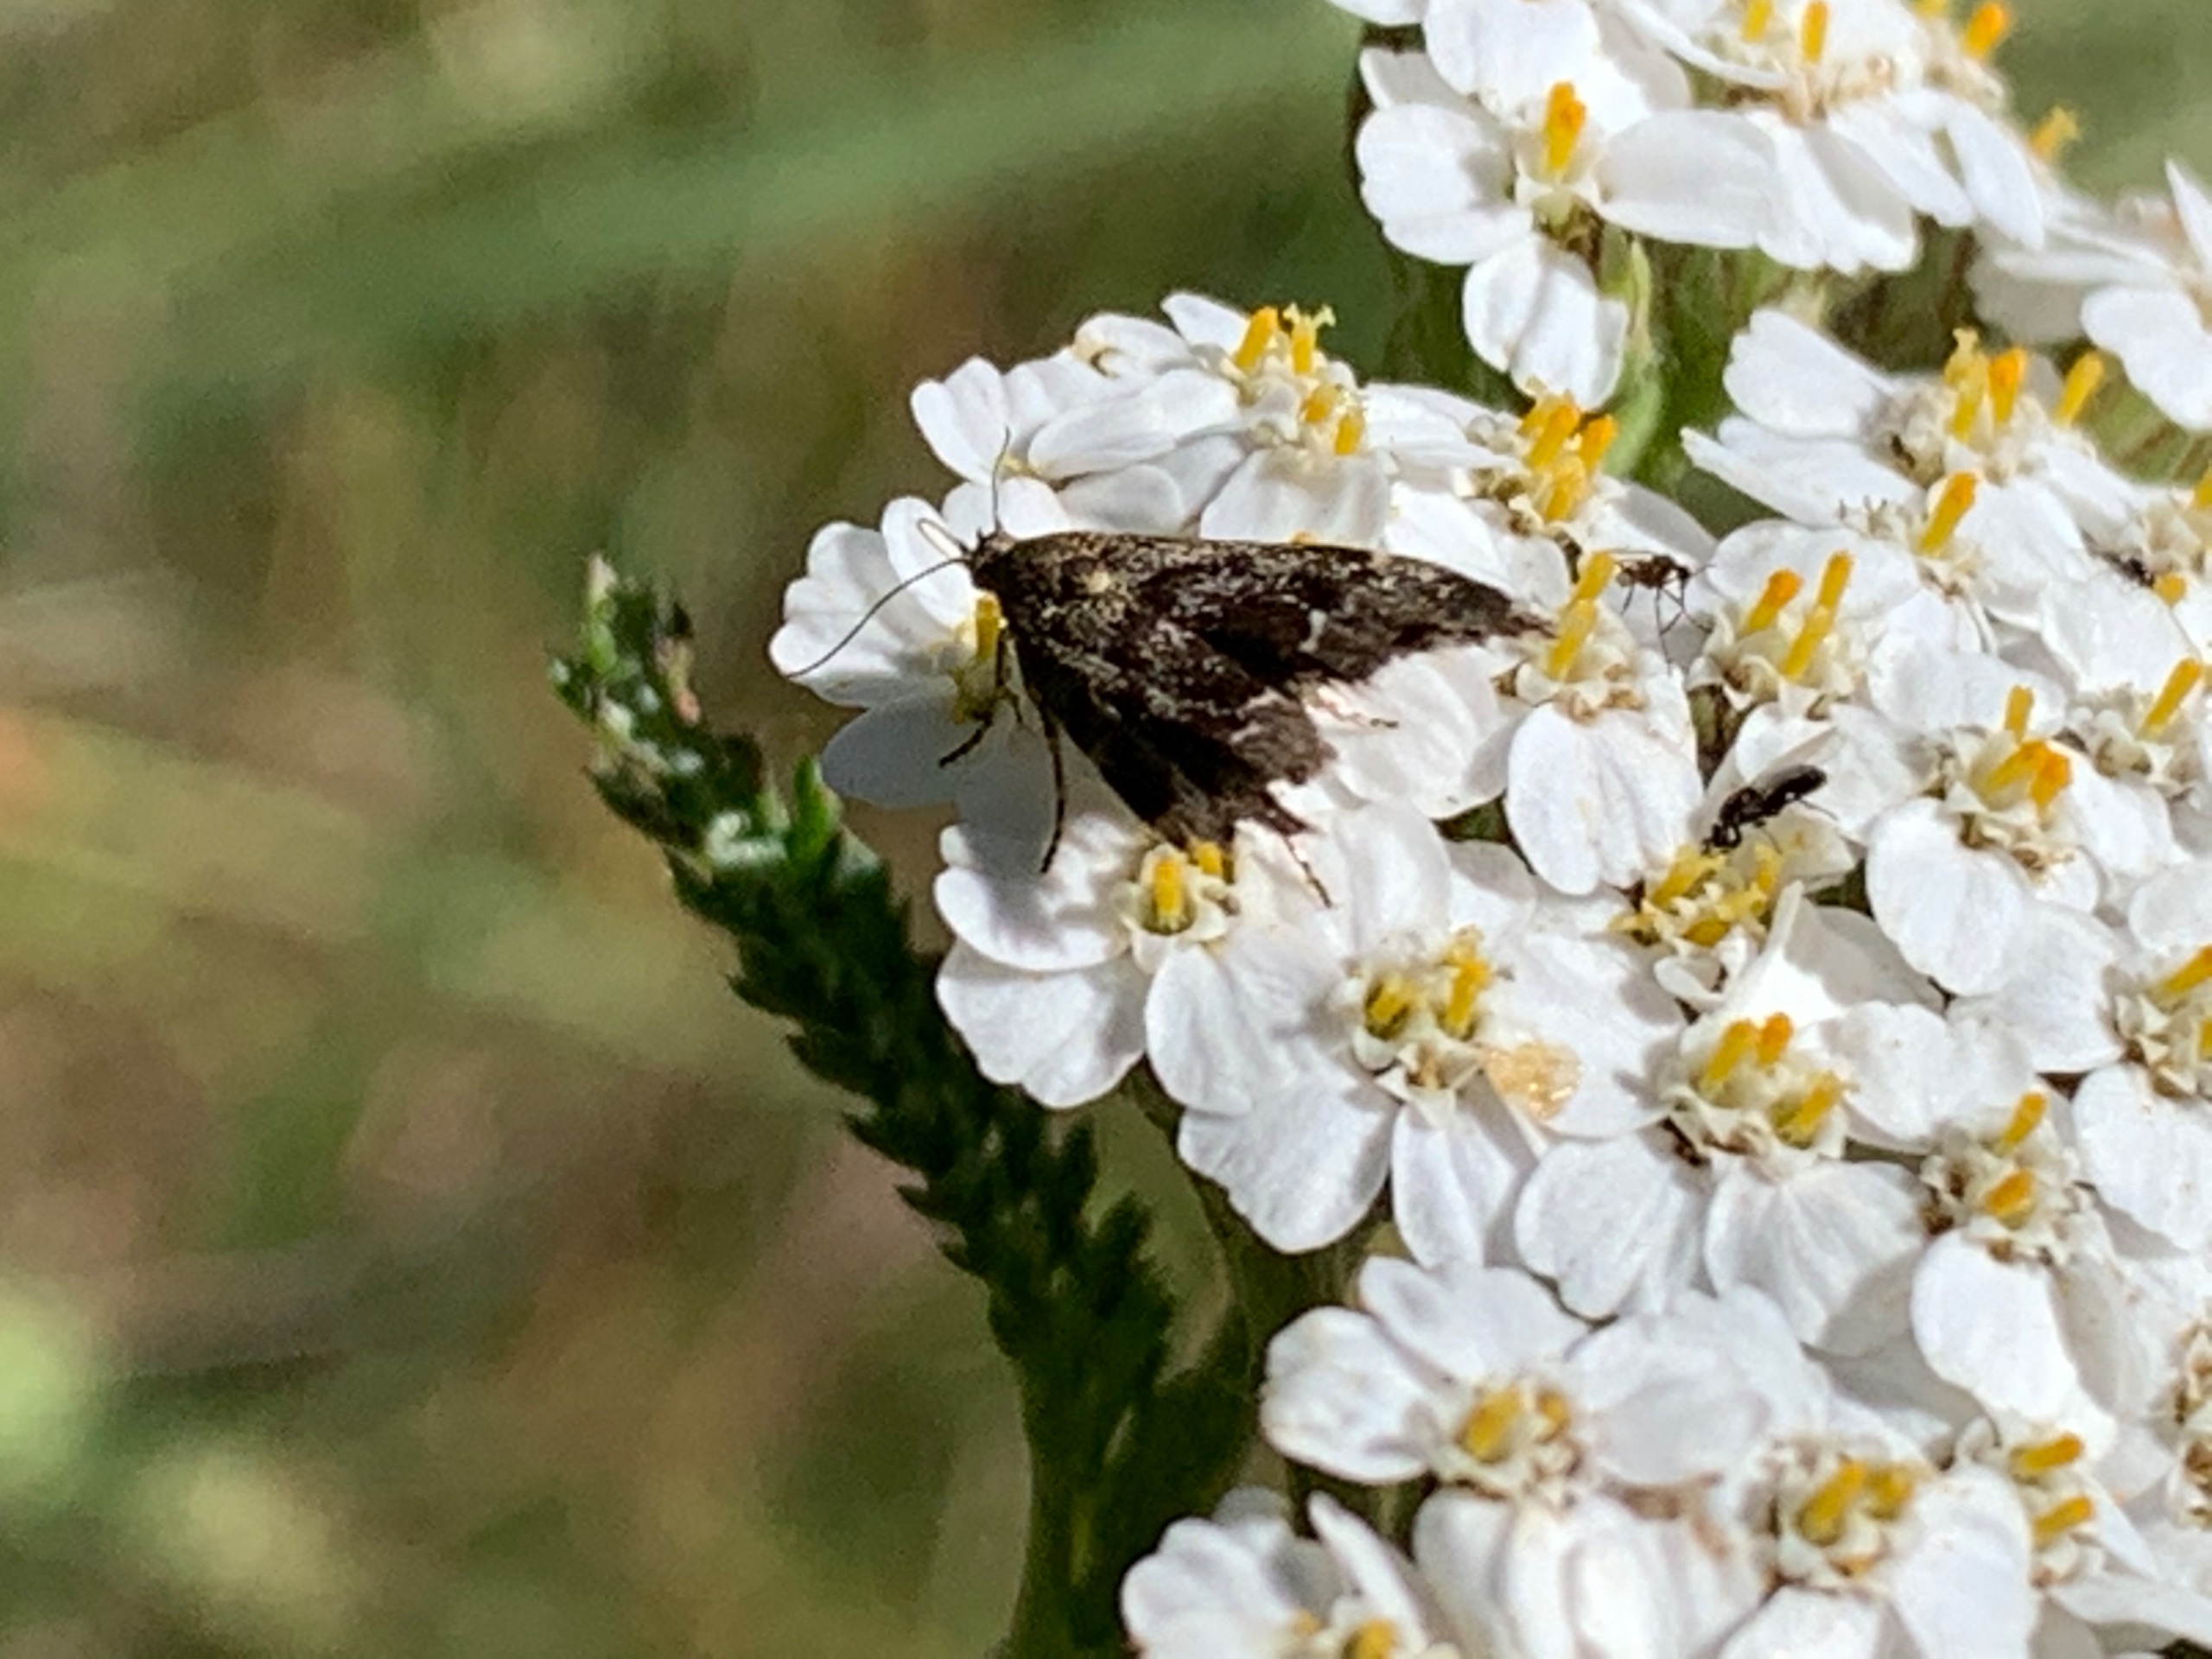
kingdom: Animalia
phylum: Arthropoda
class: Insecta
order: Lepidoptera
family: Choreutidae
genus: Anthophila
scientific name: Anthophila fabriciana
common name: Bredvinget nældevikler
